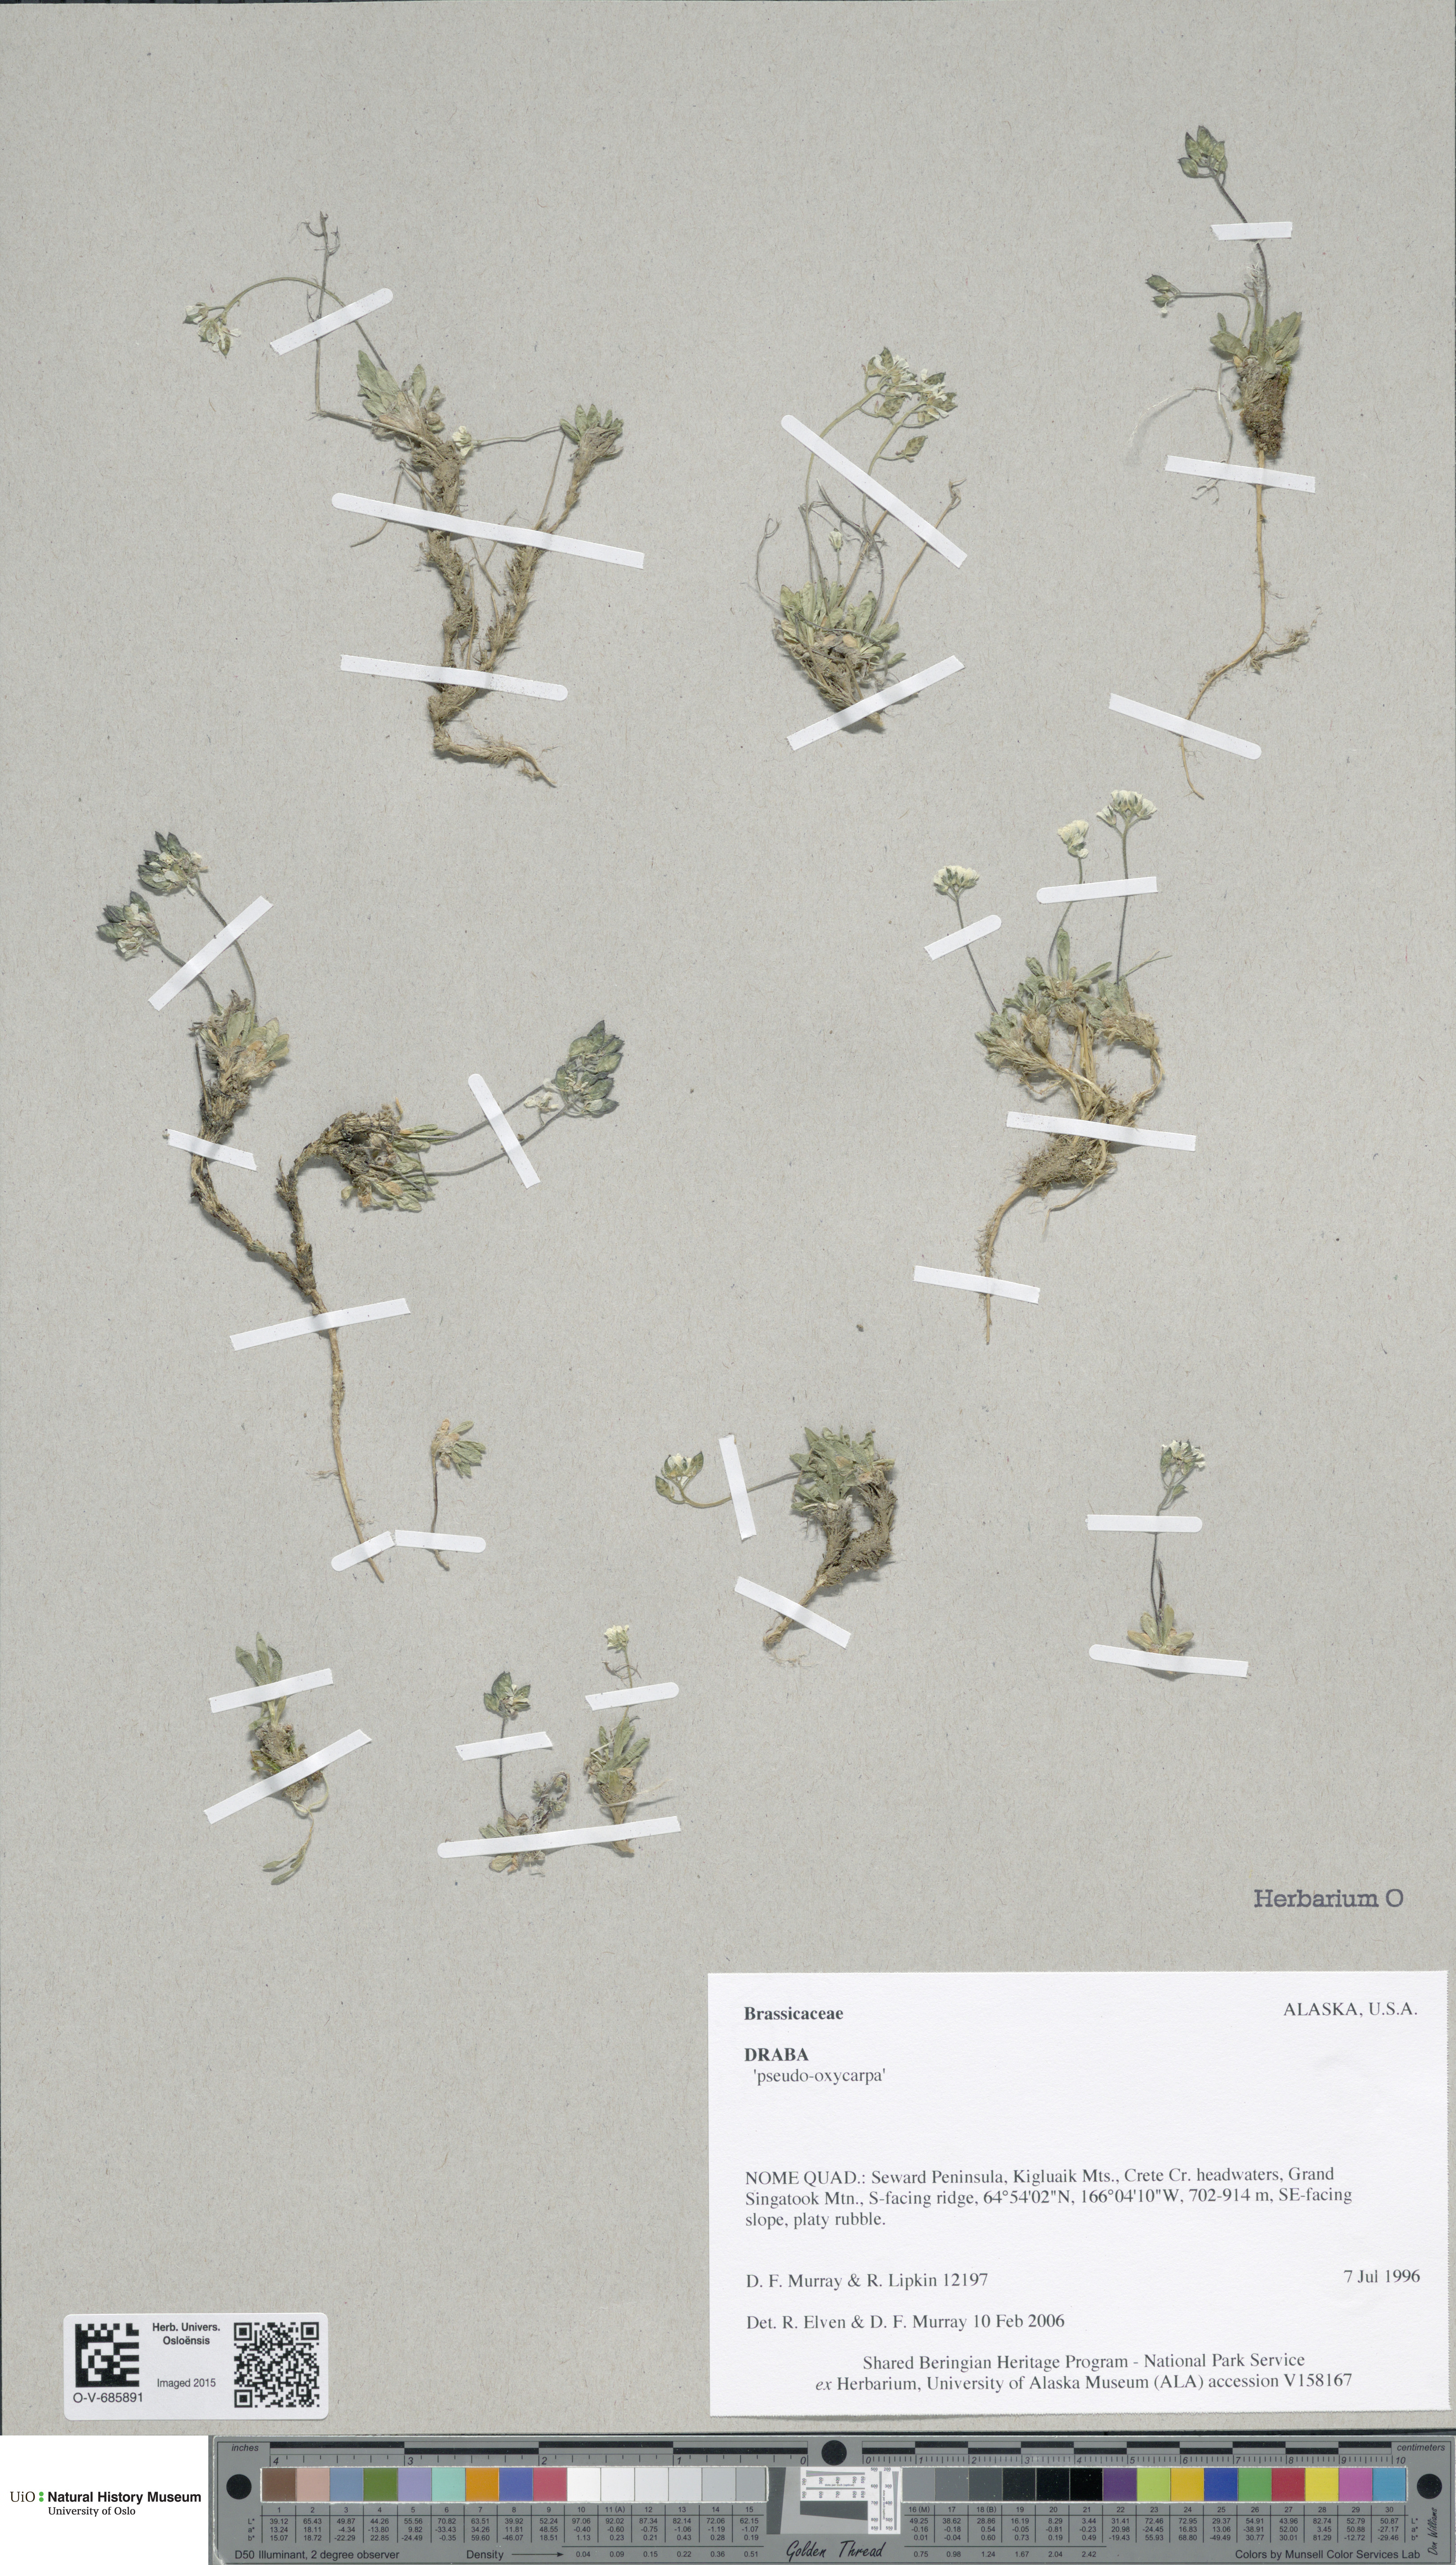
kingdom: Plantae
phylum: Tracheophyta
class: Magnoliopsida
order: Brassicales
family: Brassicaceae
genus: Draba
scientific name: Draba
